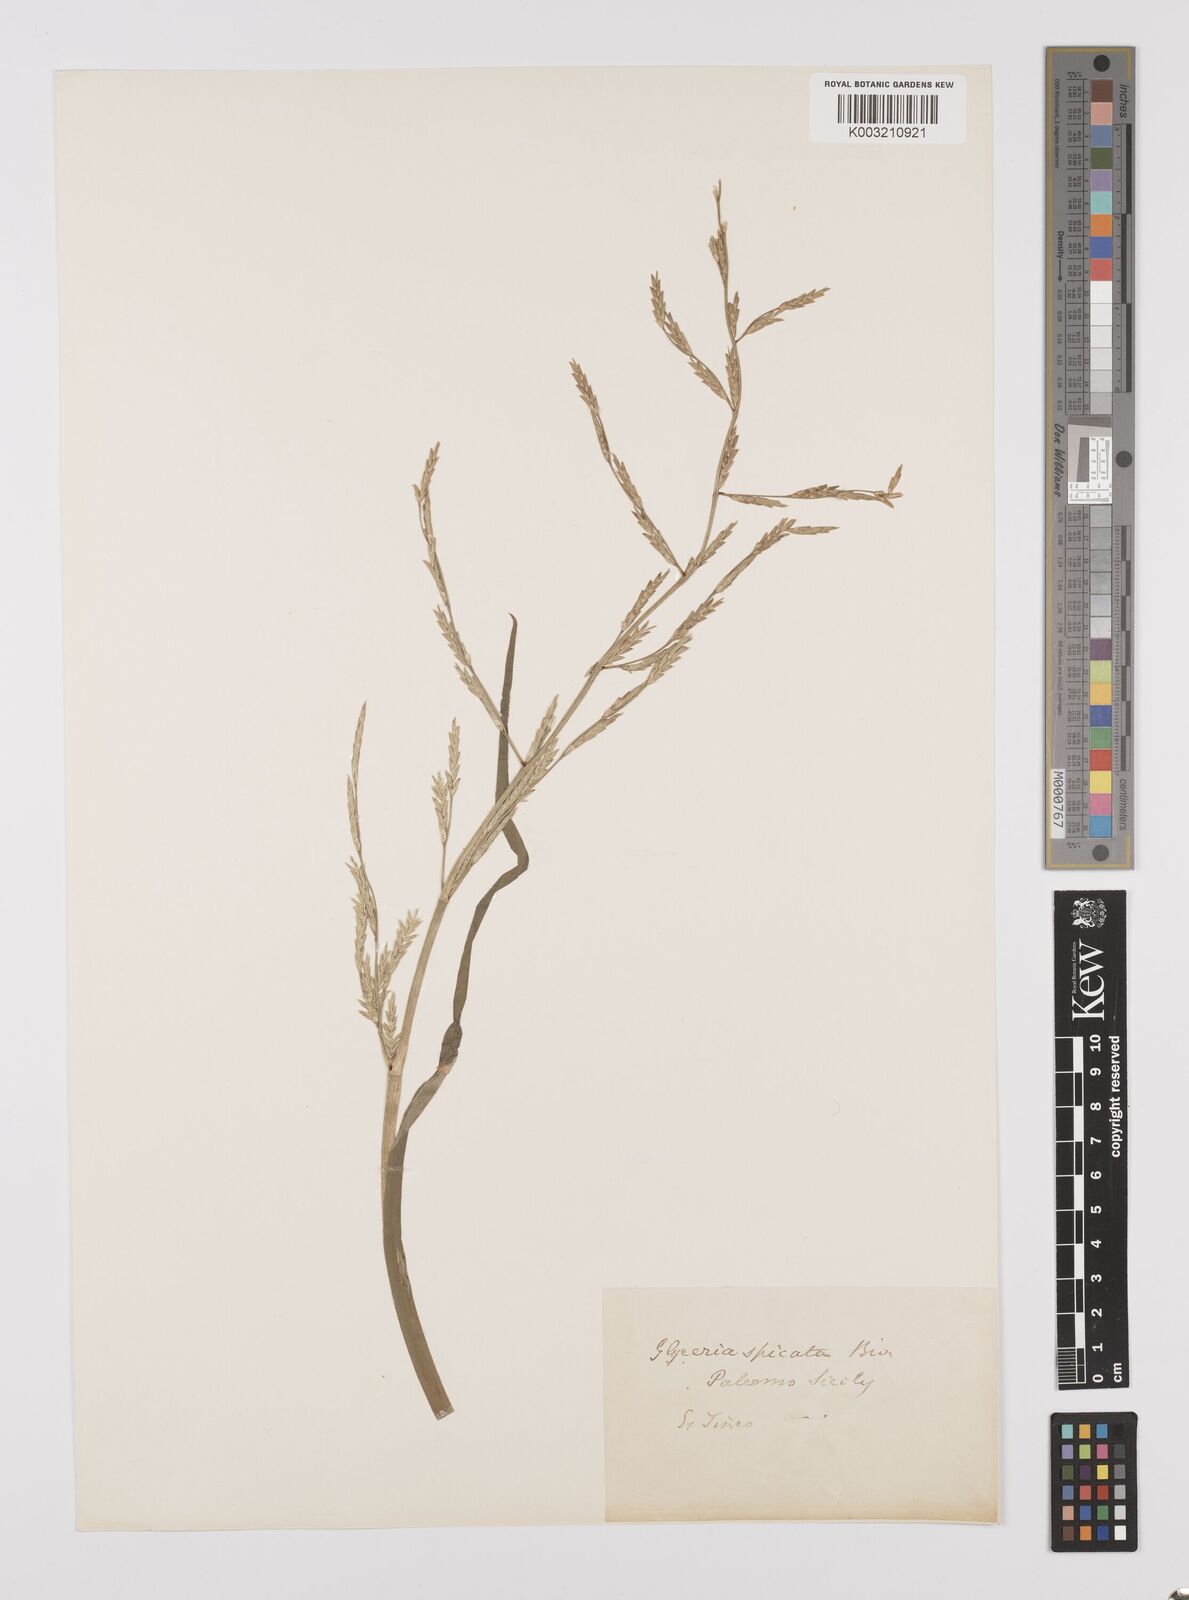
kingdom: Plantae
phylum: Tracheophyta
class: Liliopsida
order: Poales
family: Poaceae
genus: Glyceria
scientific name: Glyceria spicata
